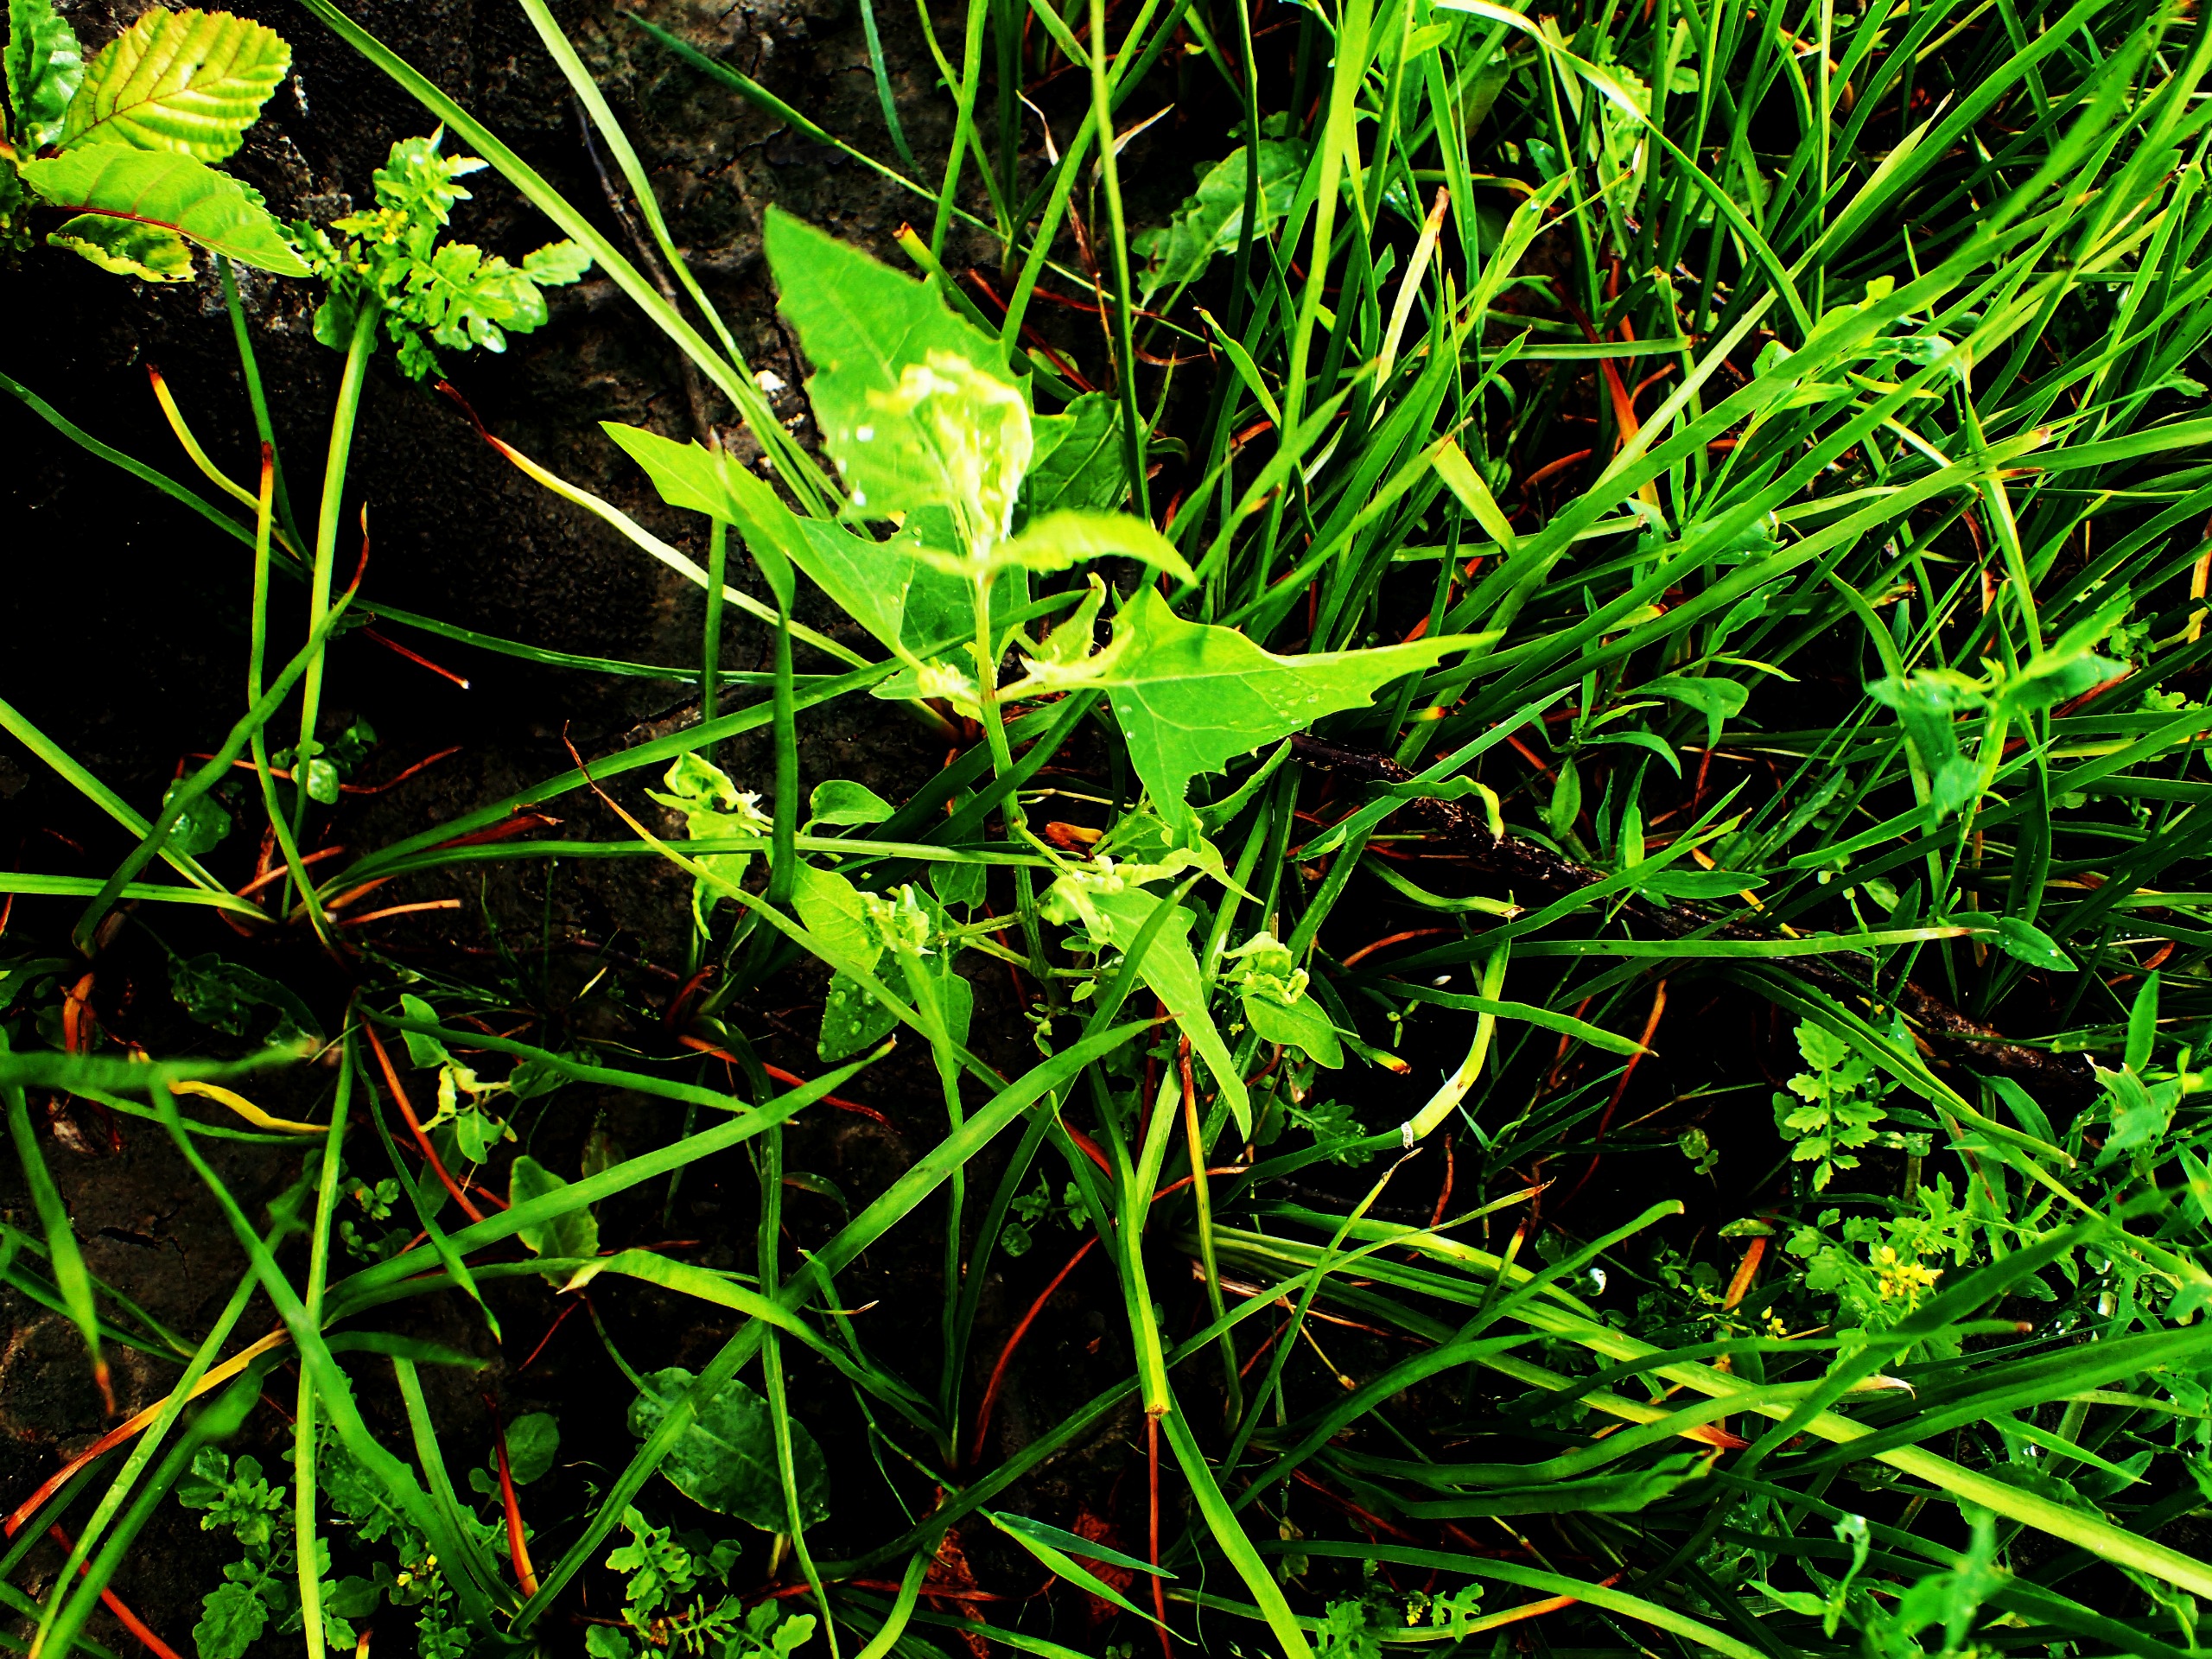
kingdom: Plantae
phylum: Tracheophyta
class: Magnoliopsida
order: Caryophyllales
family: Amaranthaceae
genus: Atriplex
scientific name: Atriplex prostrata
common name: Spyd-mælde
